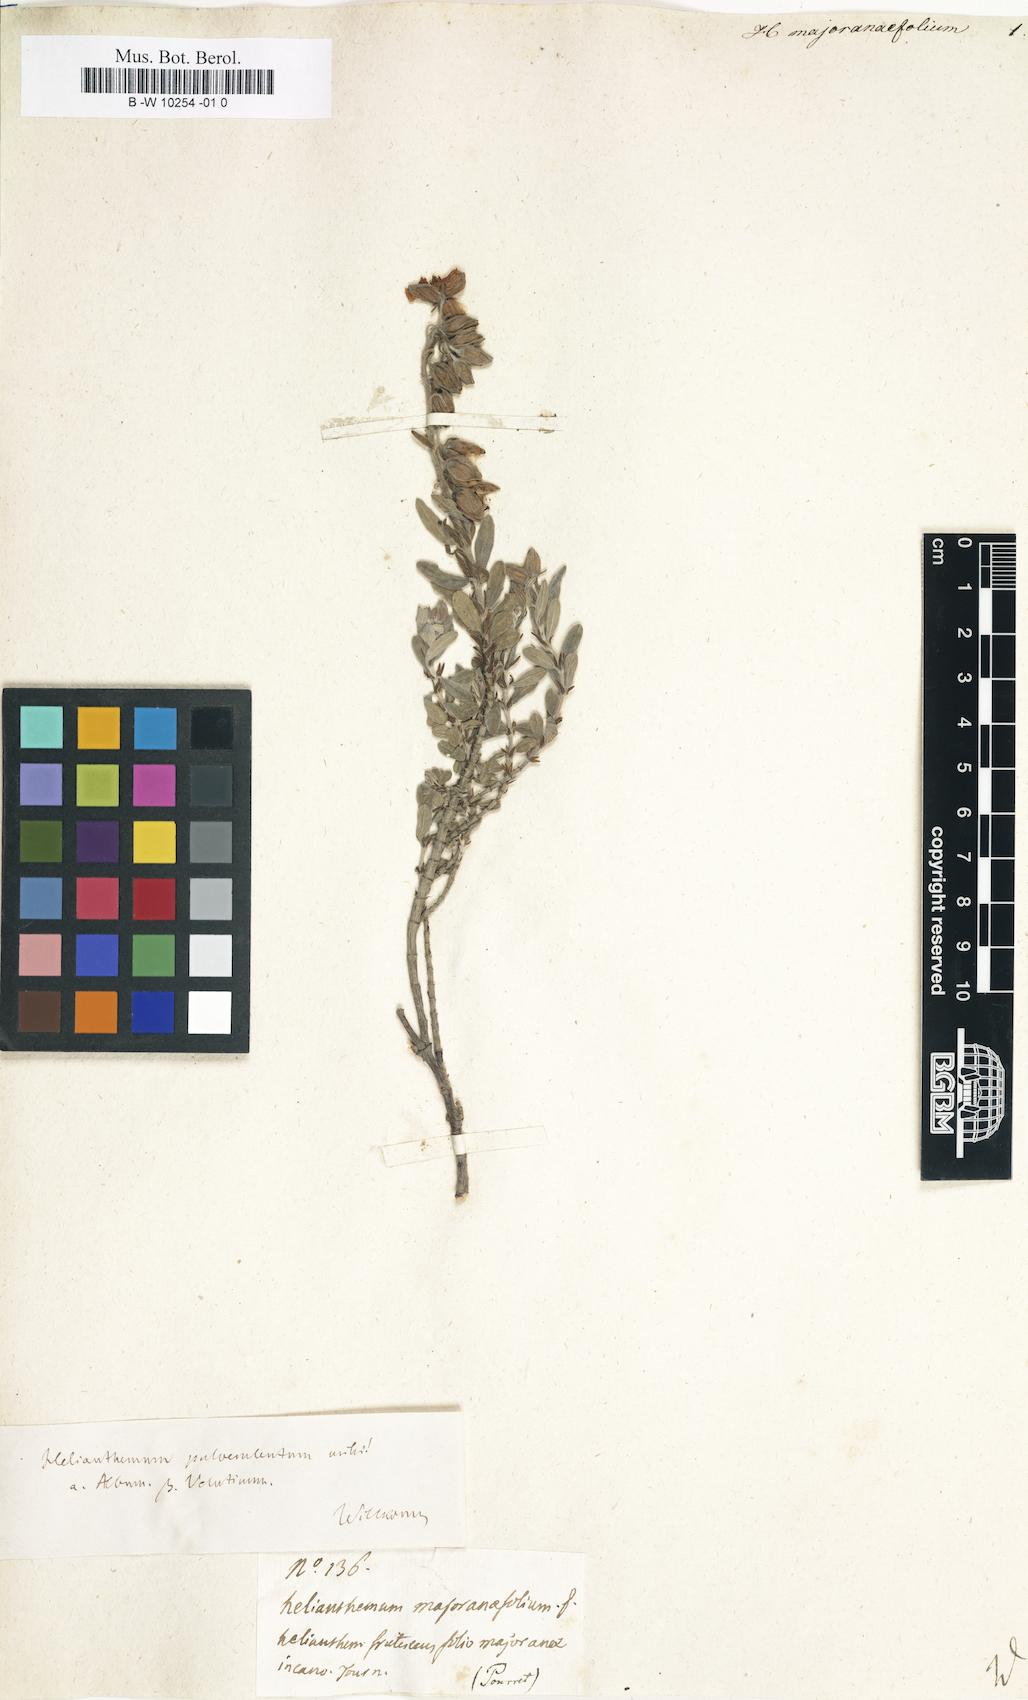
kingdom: Plantae
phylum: Tracheophyta
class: Magnoliopsida
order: Malvales
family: Cistaceae
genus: Helianthemum
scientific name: Helianthemum hirtum
